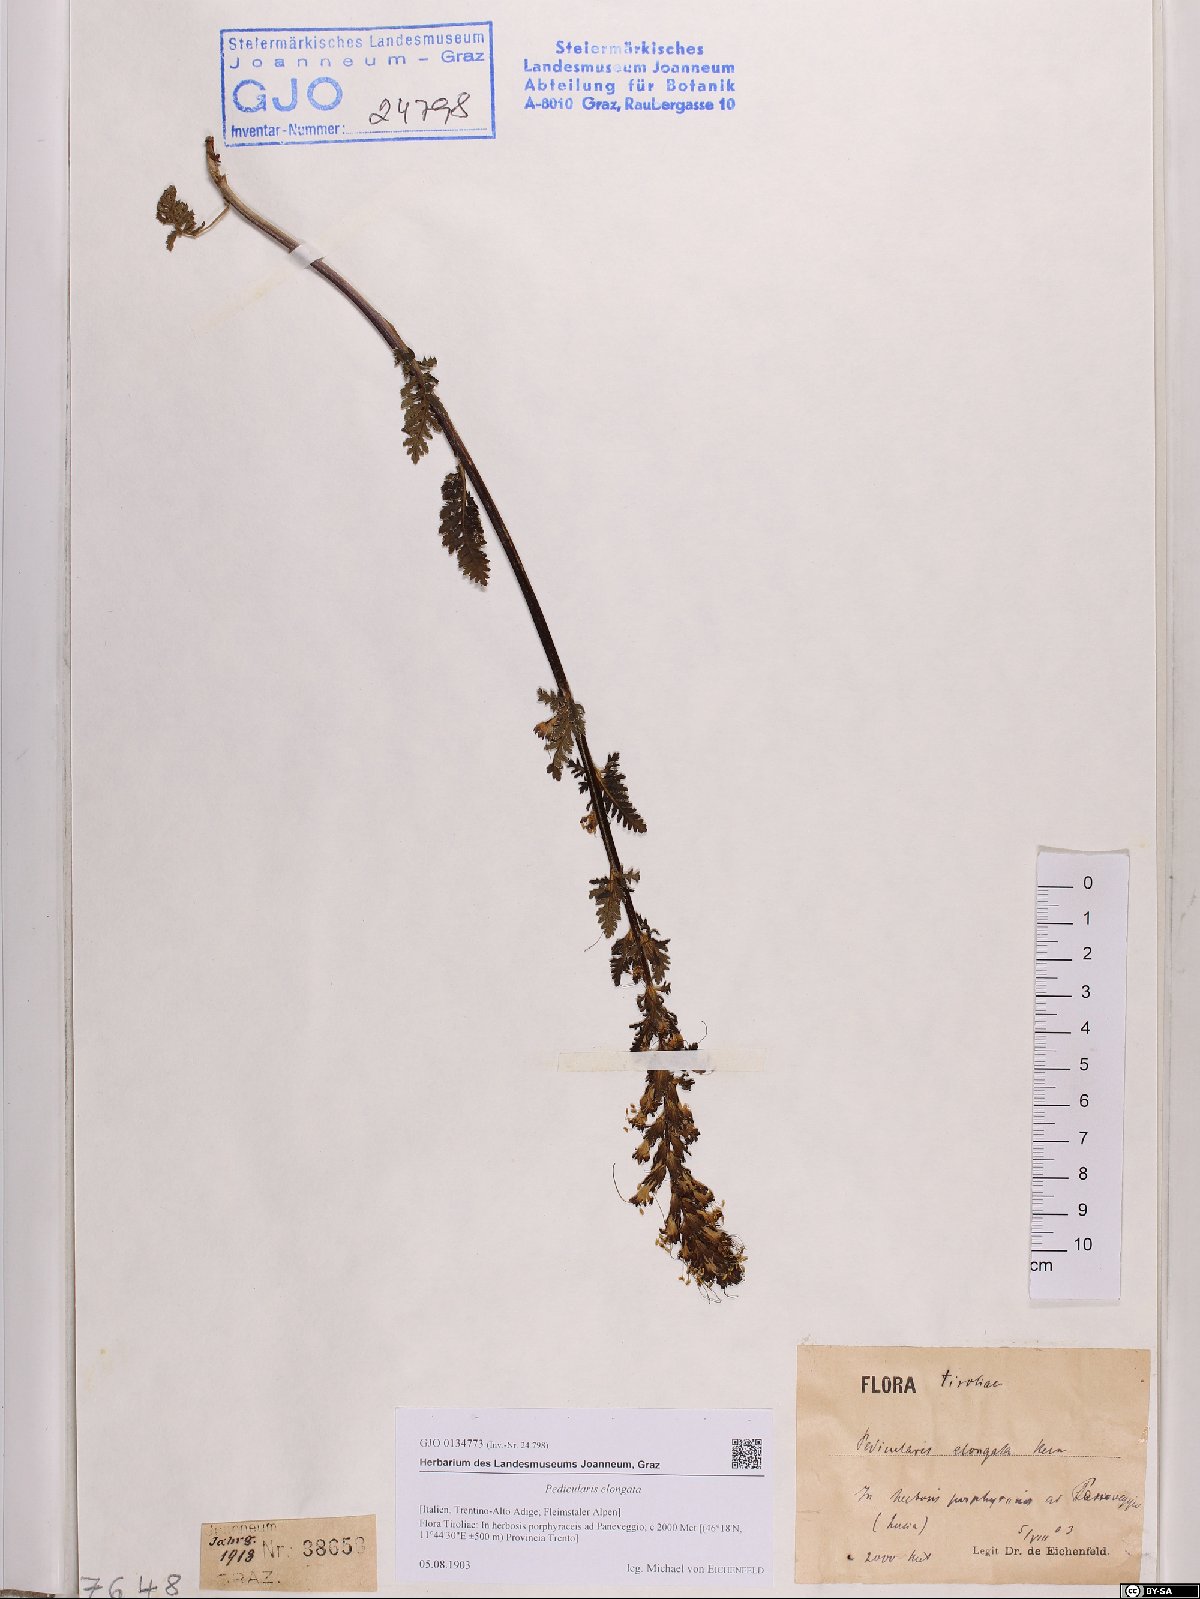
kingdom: Plantae
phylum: Tracheophyta
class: Magnoliopsida
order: Lamiales
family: Orobanchaceae
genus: Pedicularis
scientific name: Pedicularis elongata
